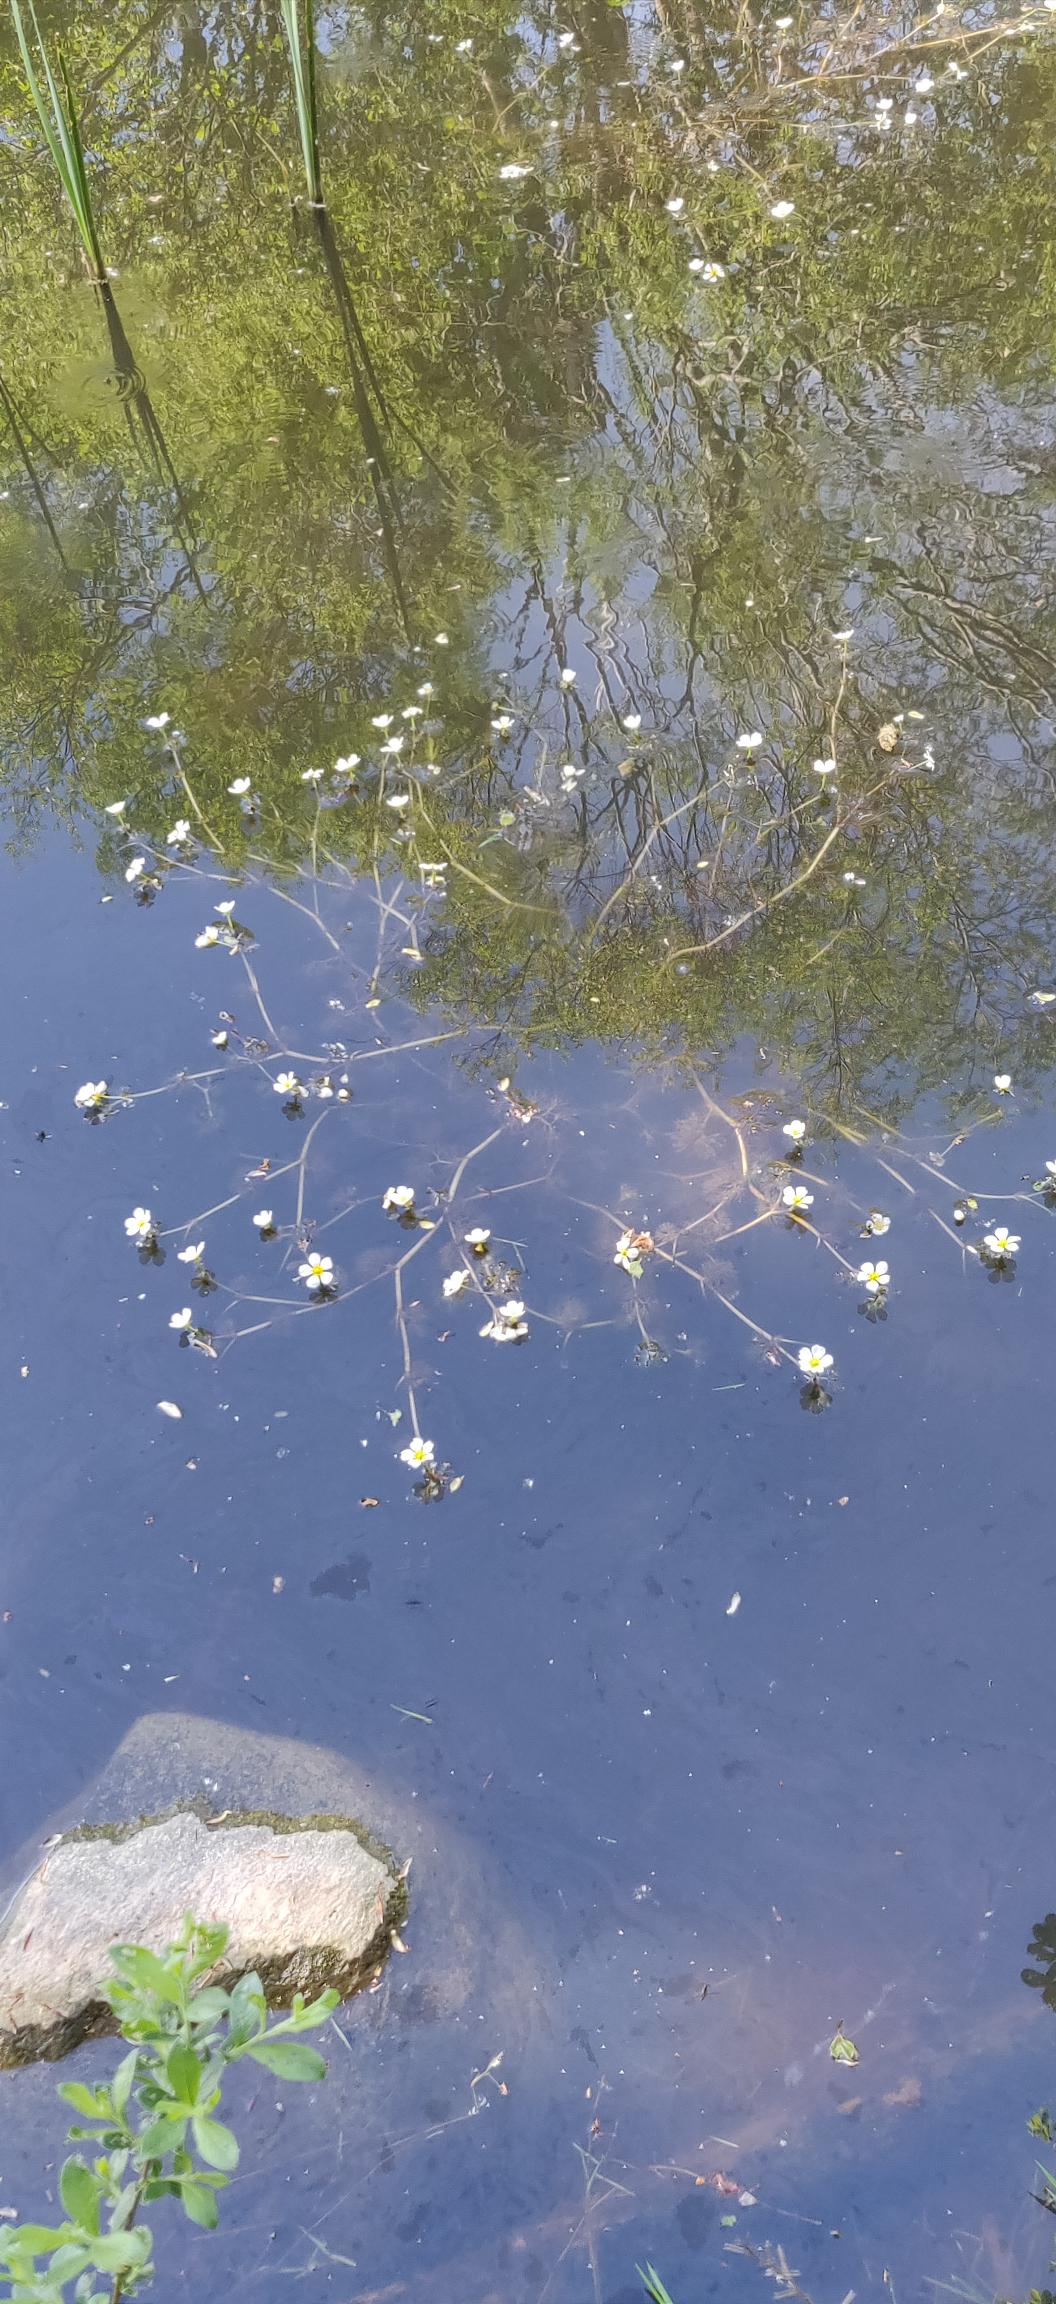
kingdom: Plantae
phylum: Tracheophyta
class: Magnoliopsida
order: Ranunculales
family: Ranunculaceae
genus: Ranunculus
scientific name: Ranunculus
